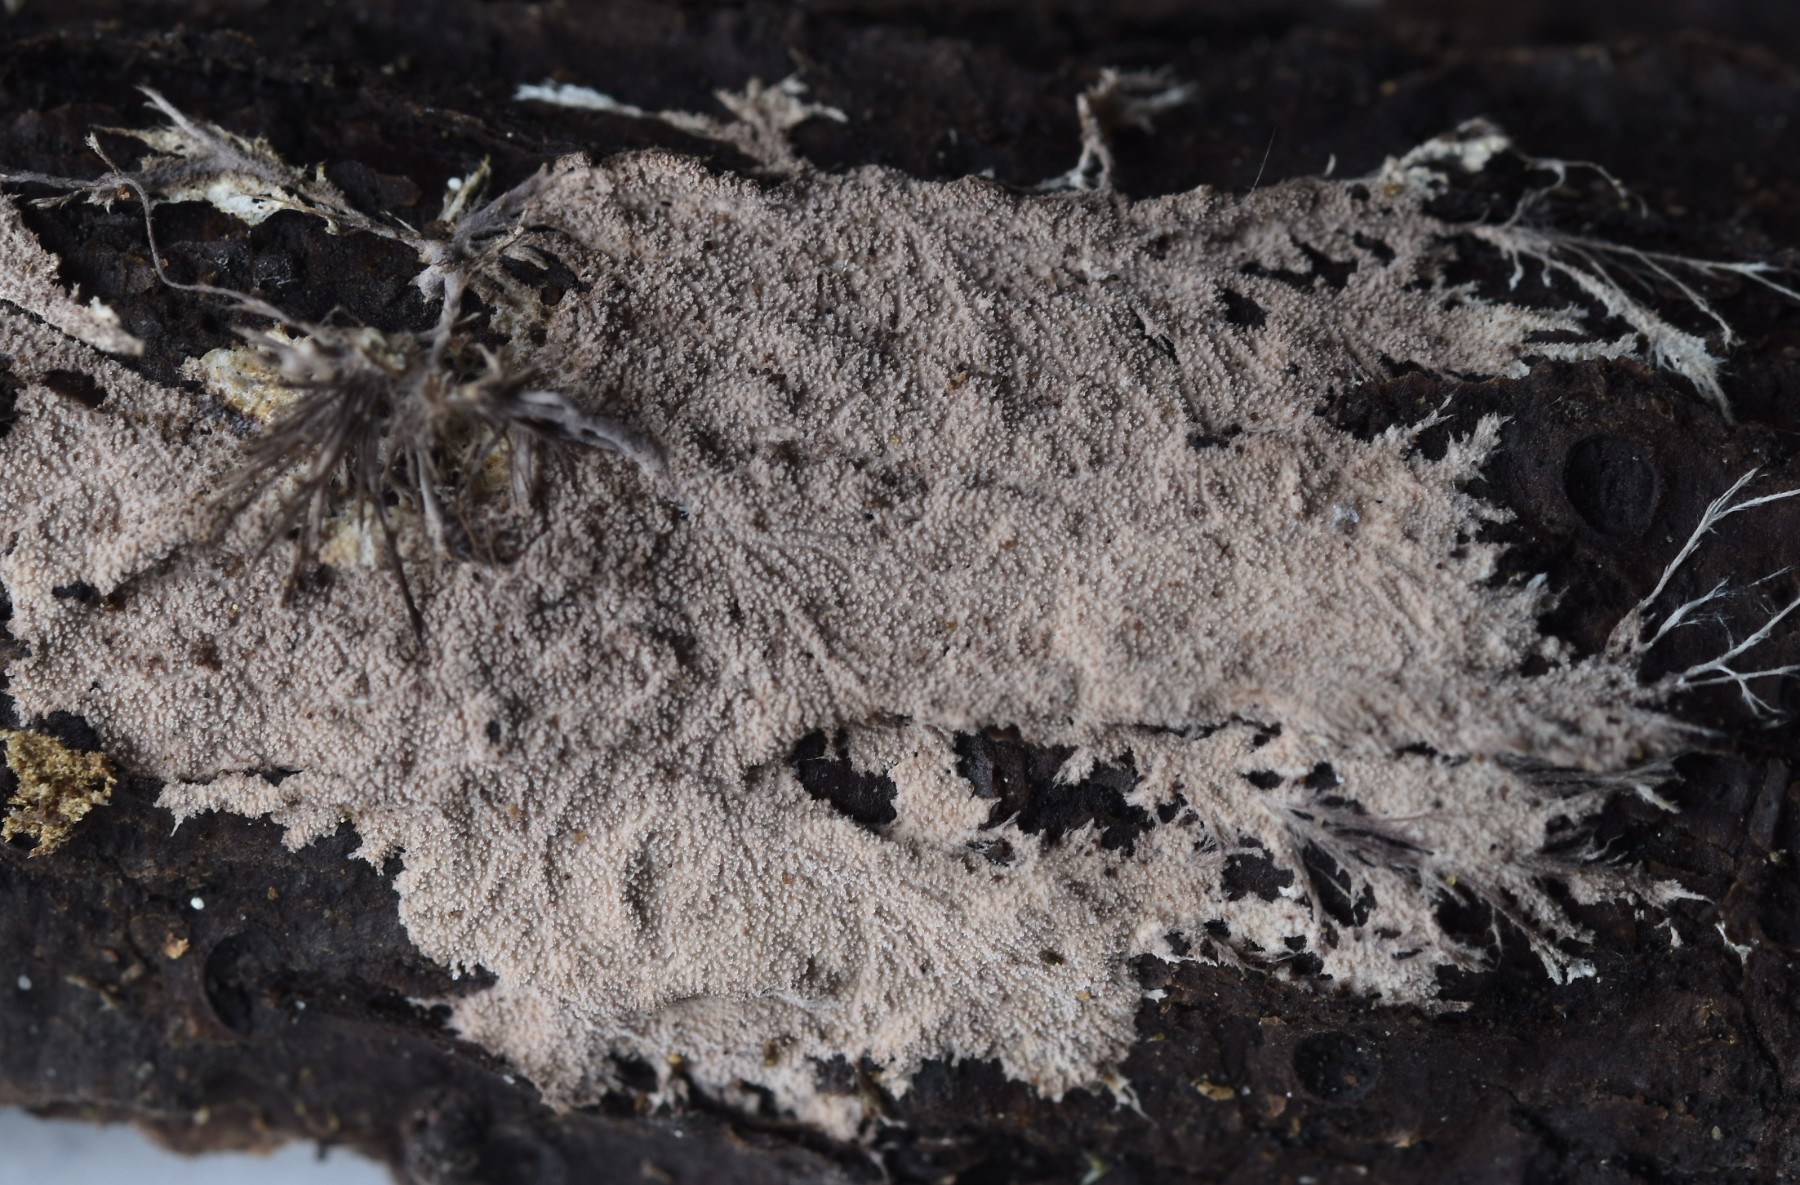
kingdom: Fungi
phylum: Basidiomycota
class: Agaricomycetes
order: Polyporales
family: Steccherinaceae
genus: Steccherinum
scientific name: Steccherinum fimbriatum
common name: trådet skønpig
